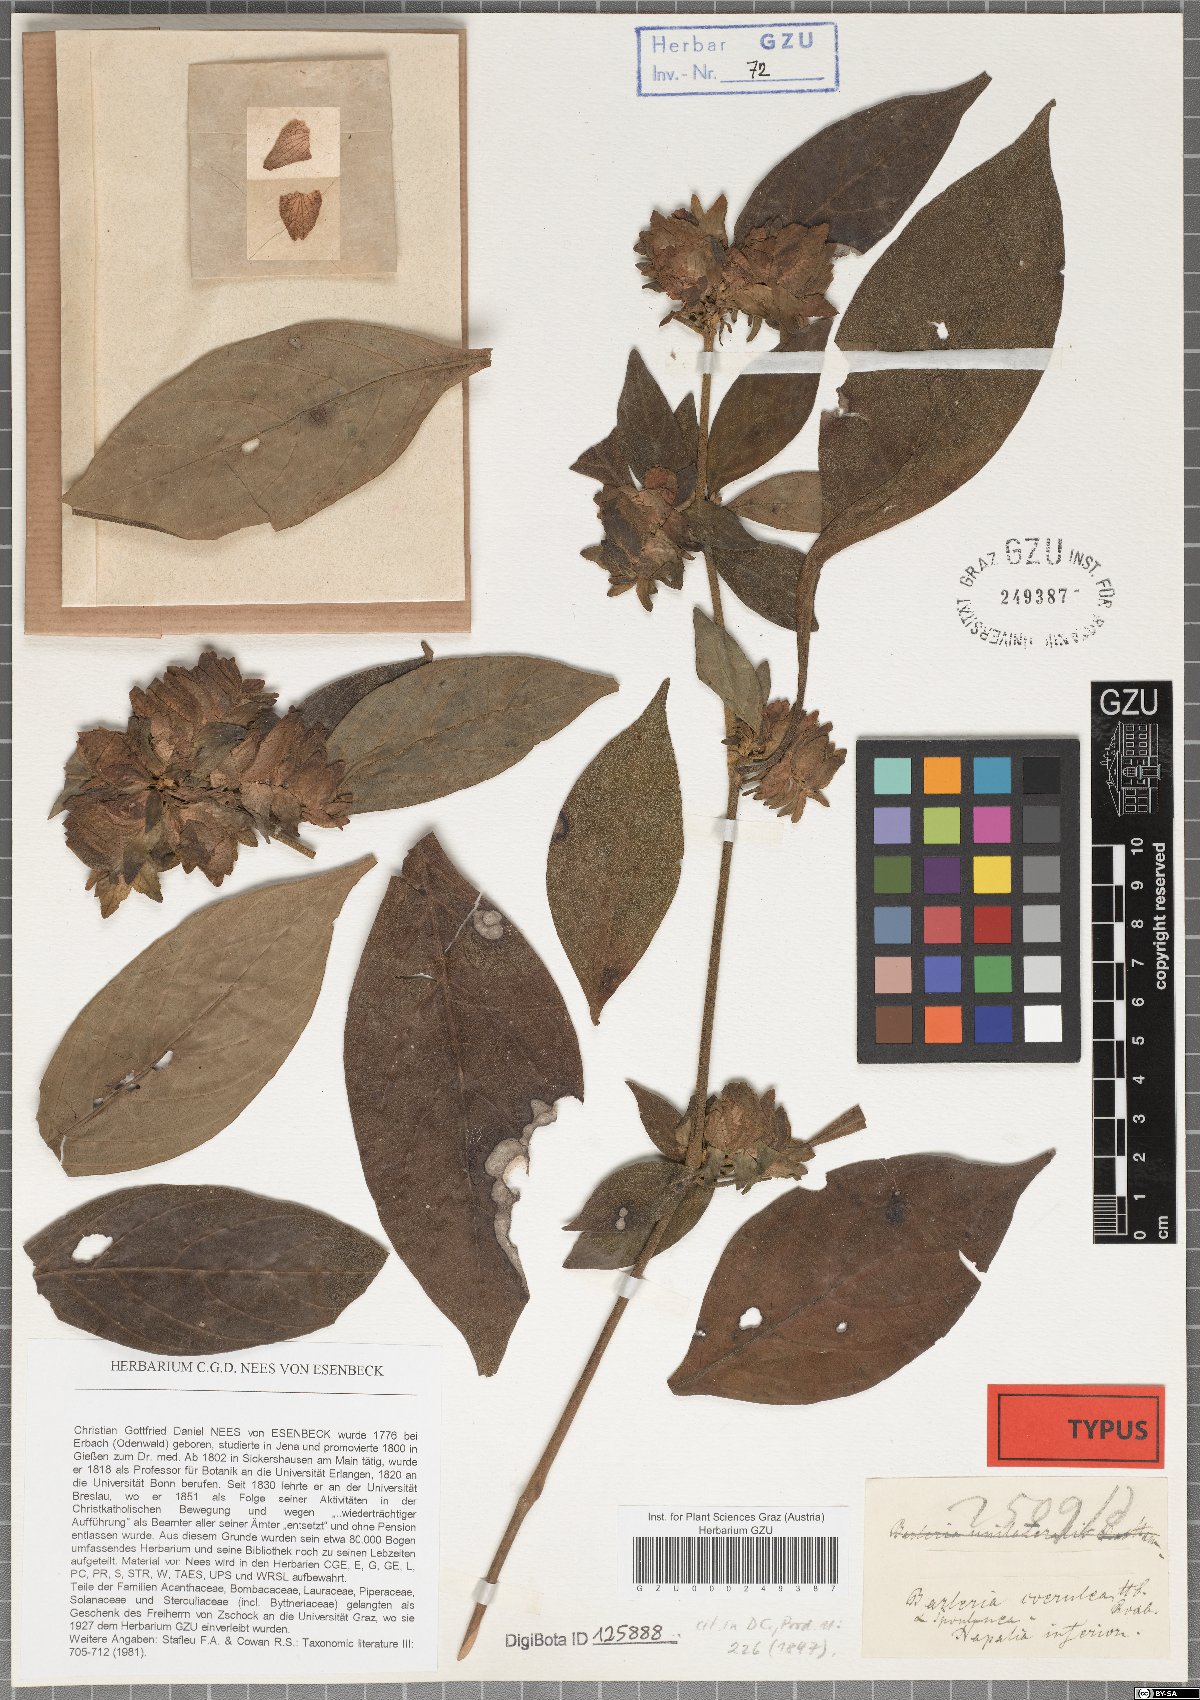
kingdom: Plantae
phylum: Tracheophyta
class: Magnoliopsida
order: Lamiales
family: Acanthaceae
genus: Barleria
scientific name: Barleria strigosa
